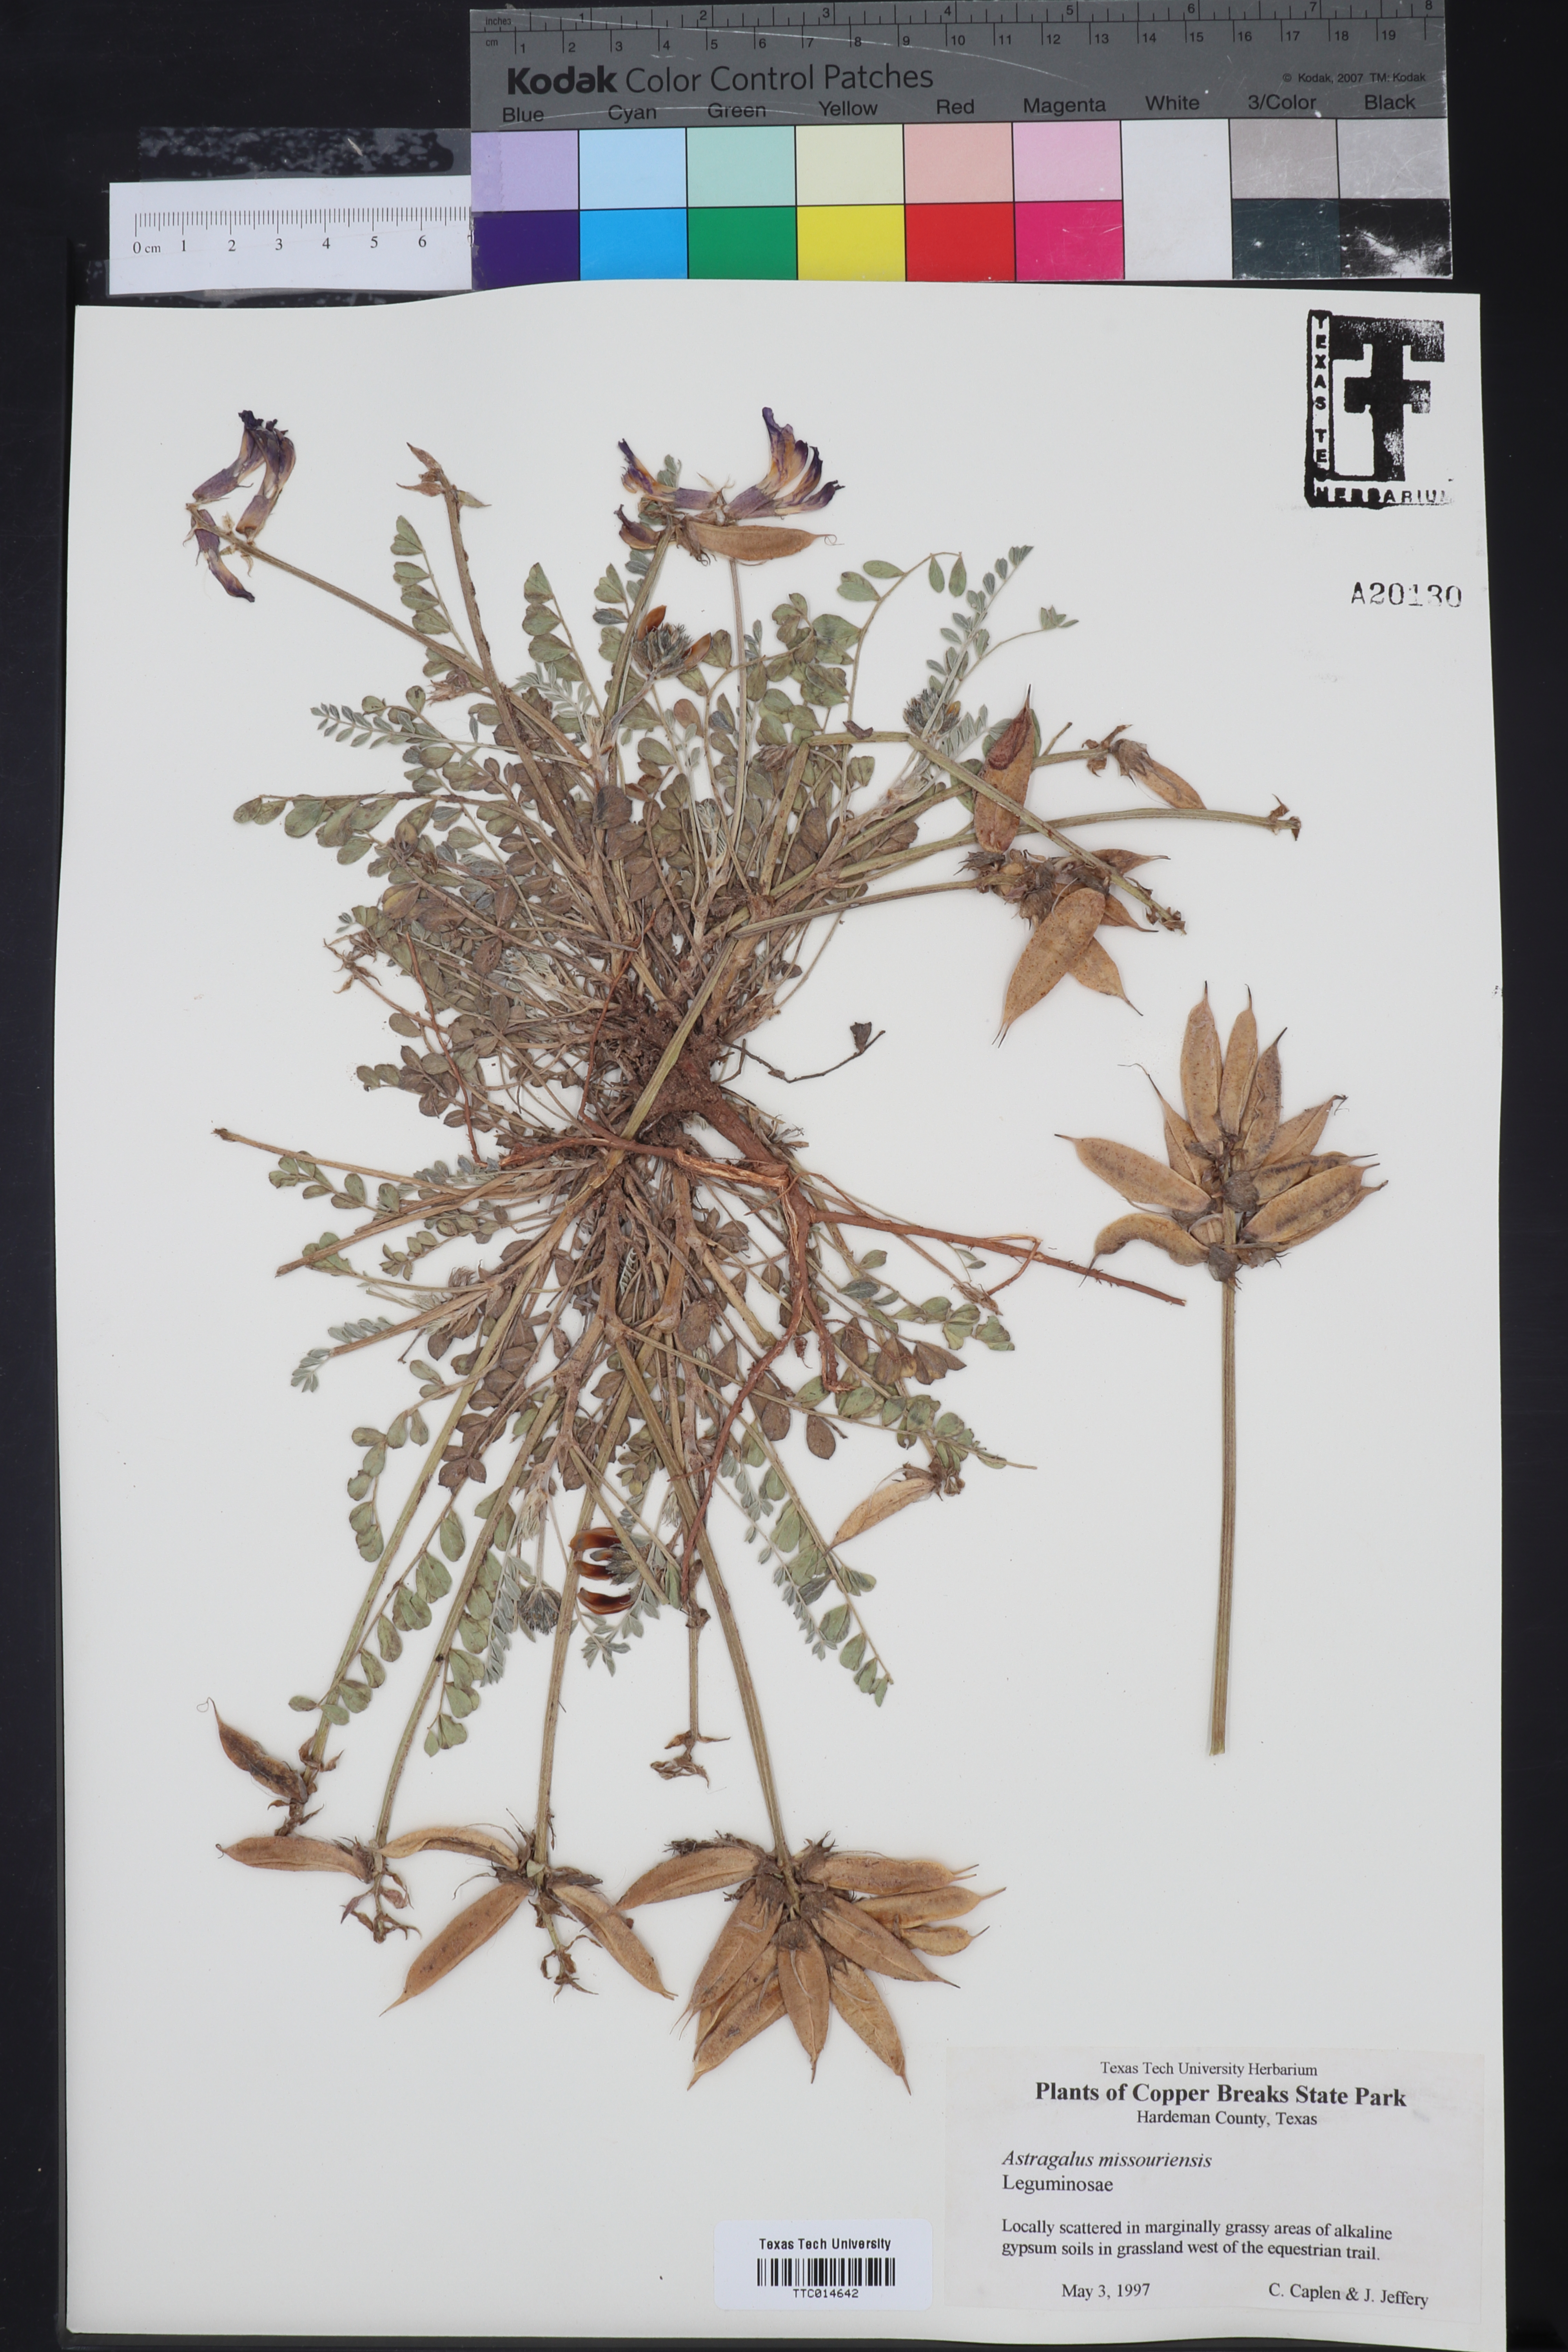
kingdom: Plantae
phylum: Tracheophyta
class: Magnoliopsida
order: Fabales
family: Fabaceae
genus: Astragalus
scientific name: Astragalus missouriensis
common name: Missouri milk-vetch
